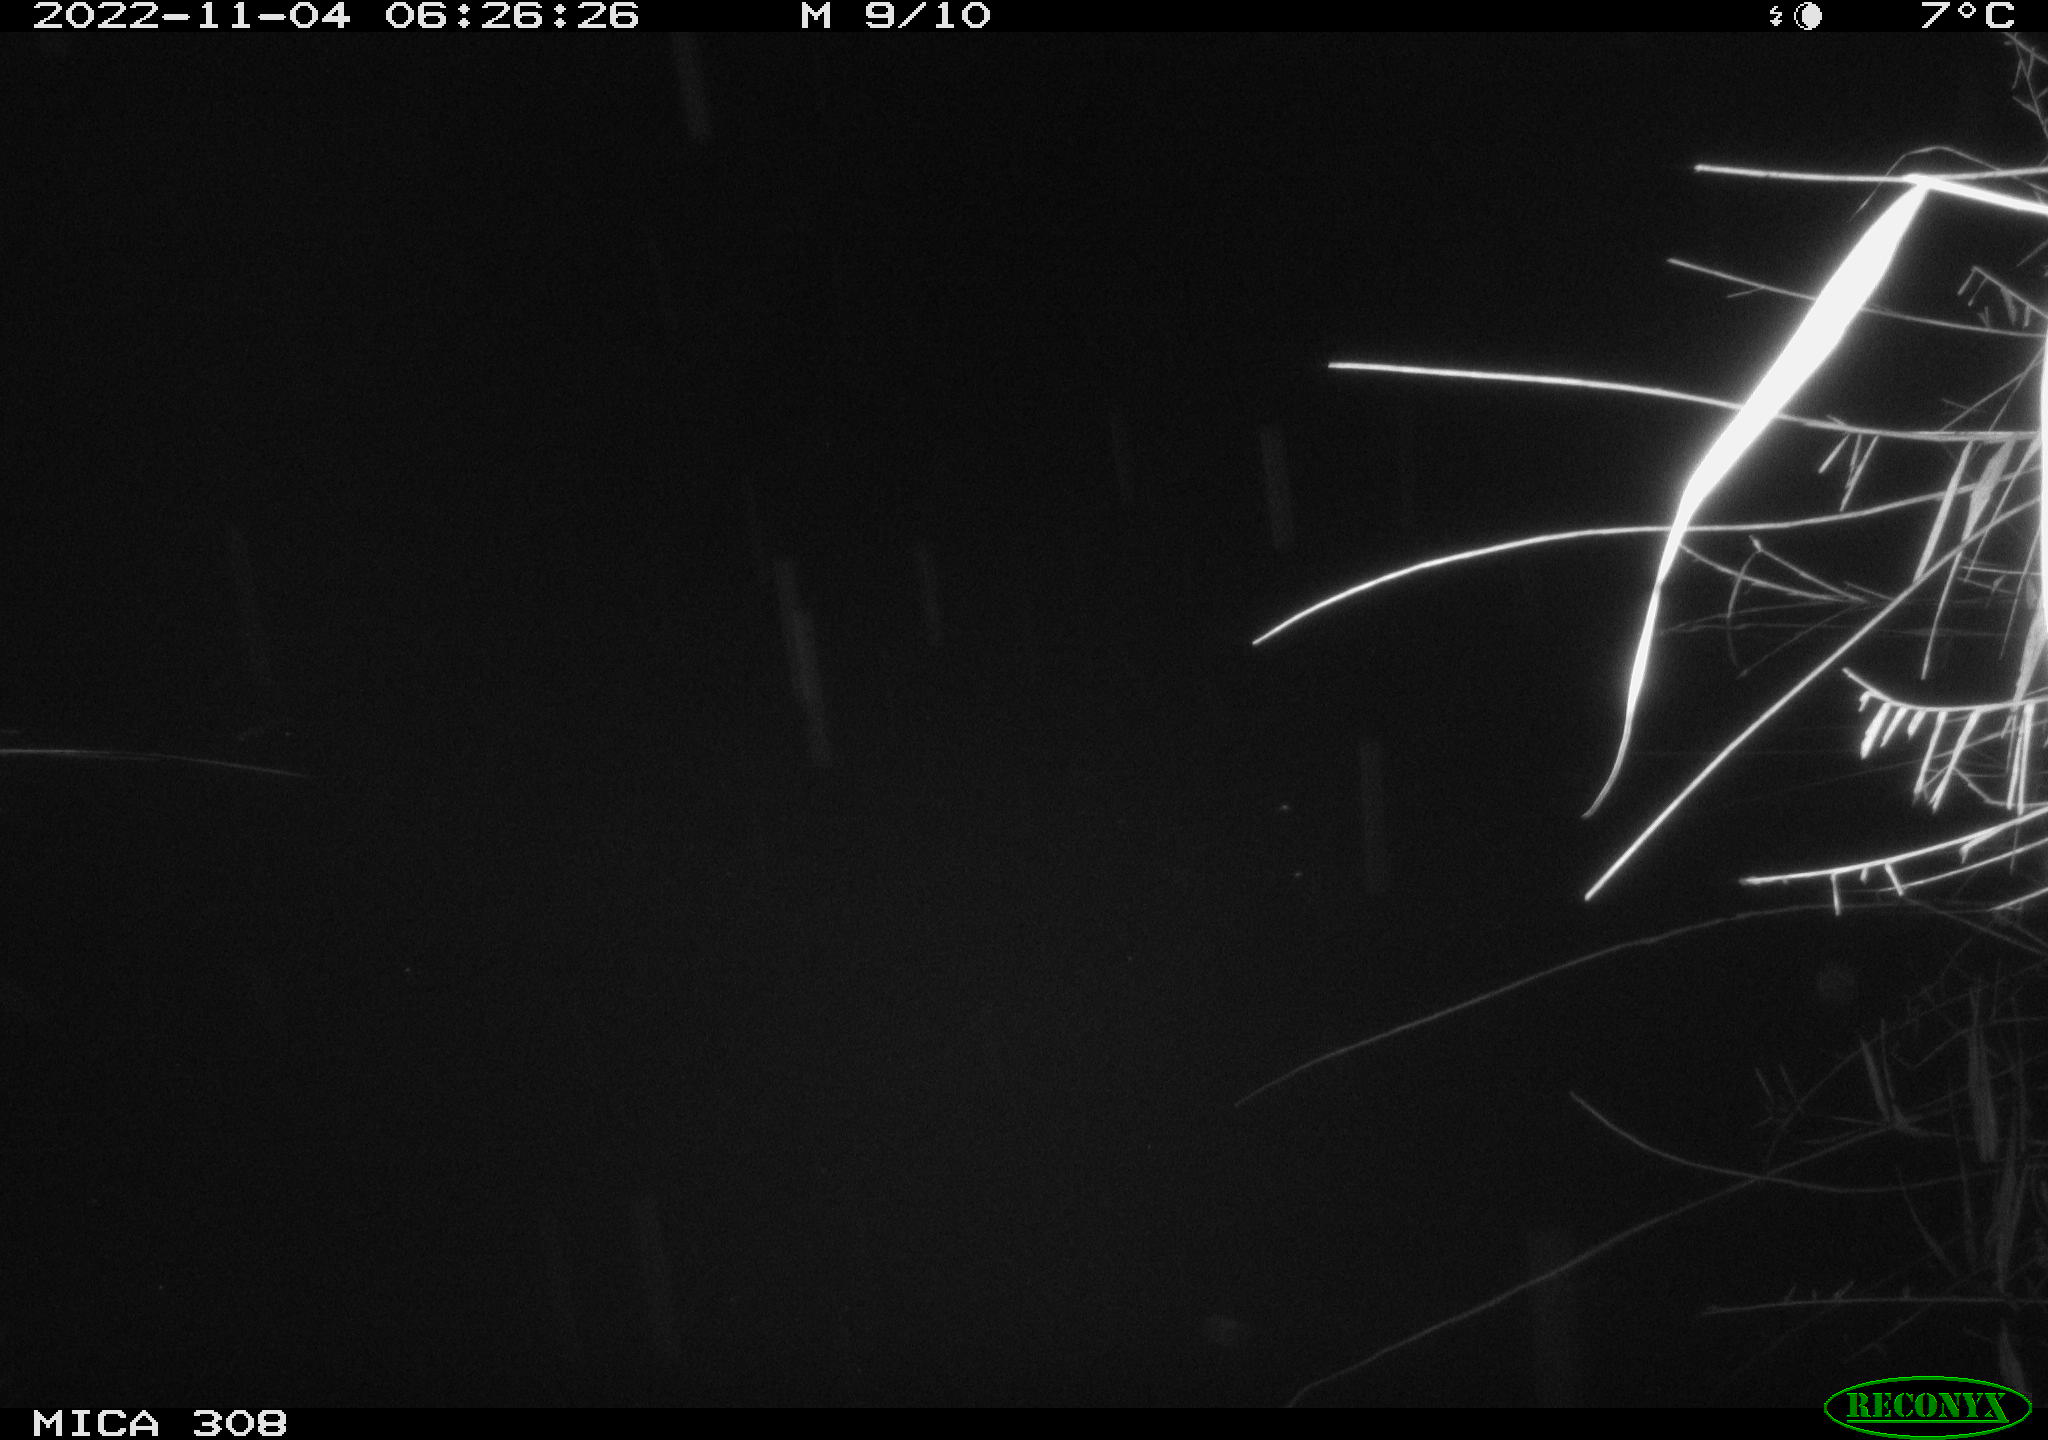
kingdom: Animalia
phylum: Chordata
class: Mammalia
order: Rodentia
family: Muridae
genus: Rattus
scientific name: Rattus norvegicus
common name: Brown rat
